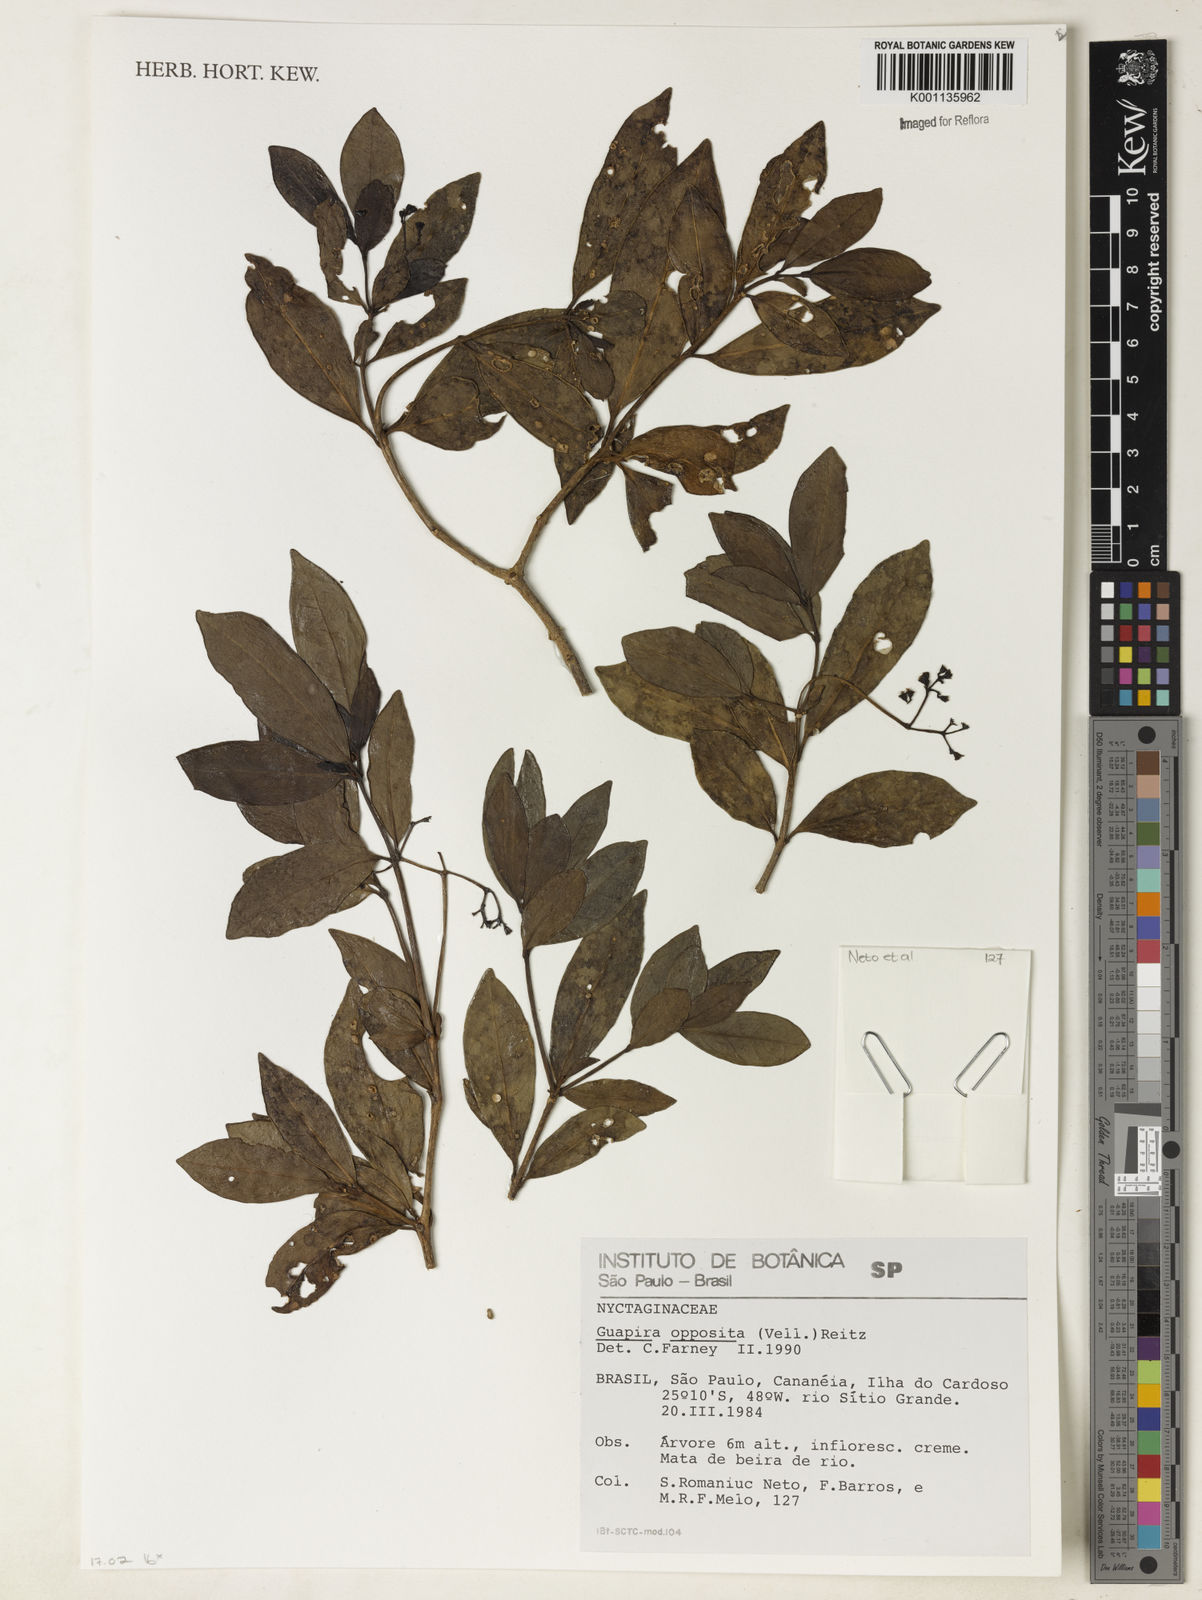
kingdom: Plantae
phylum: Tracheophyta
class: Magnoliopsida
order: Caryophyllales
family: Nyctaginaceae
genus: Guapira
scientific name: Guapira opposita
